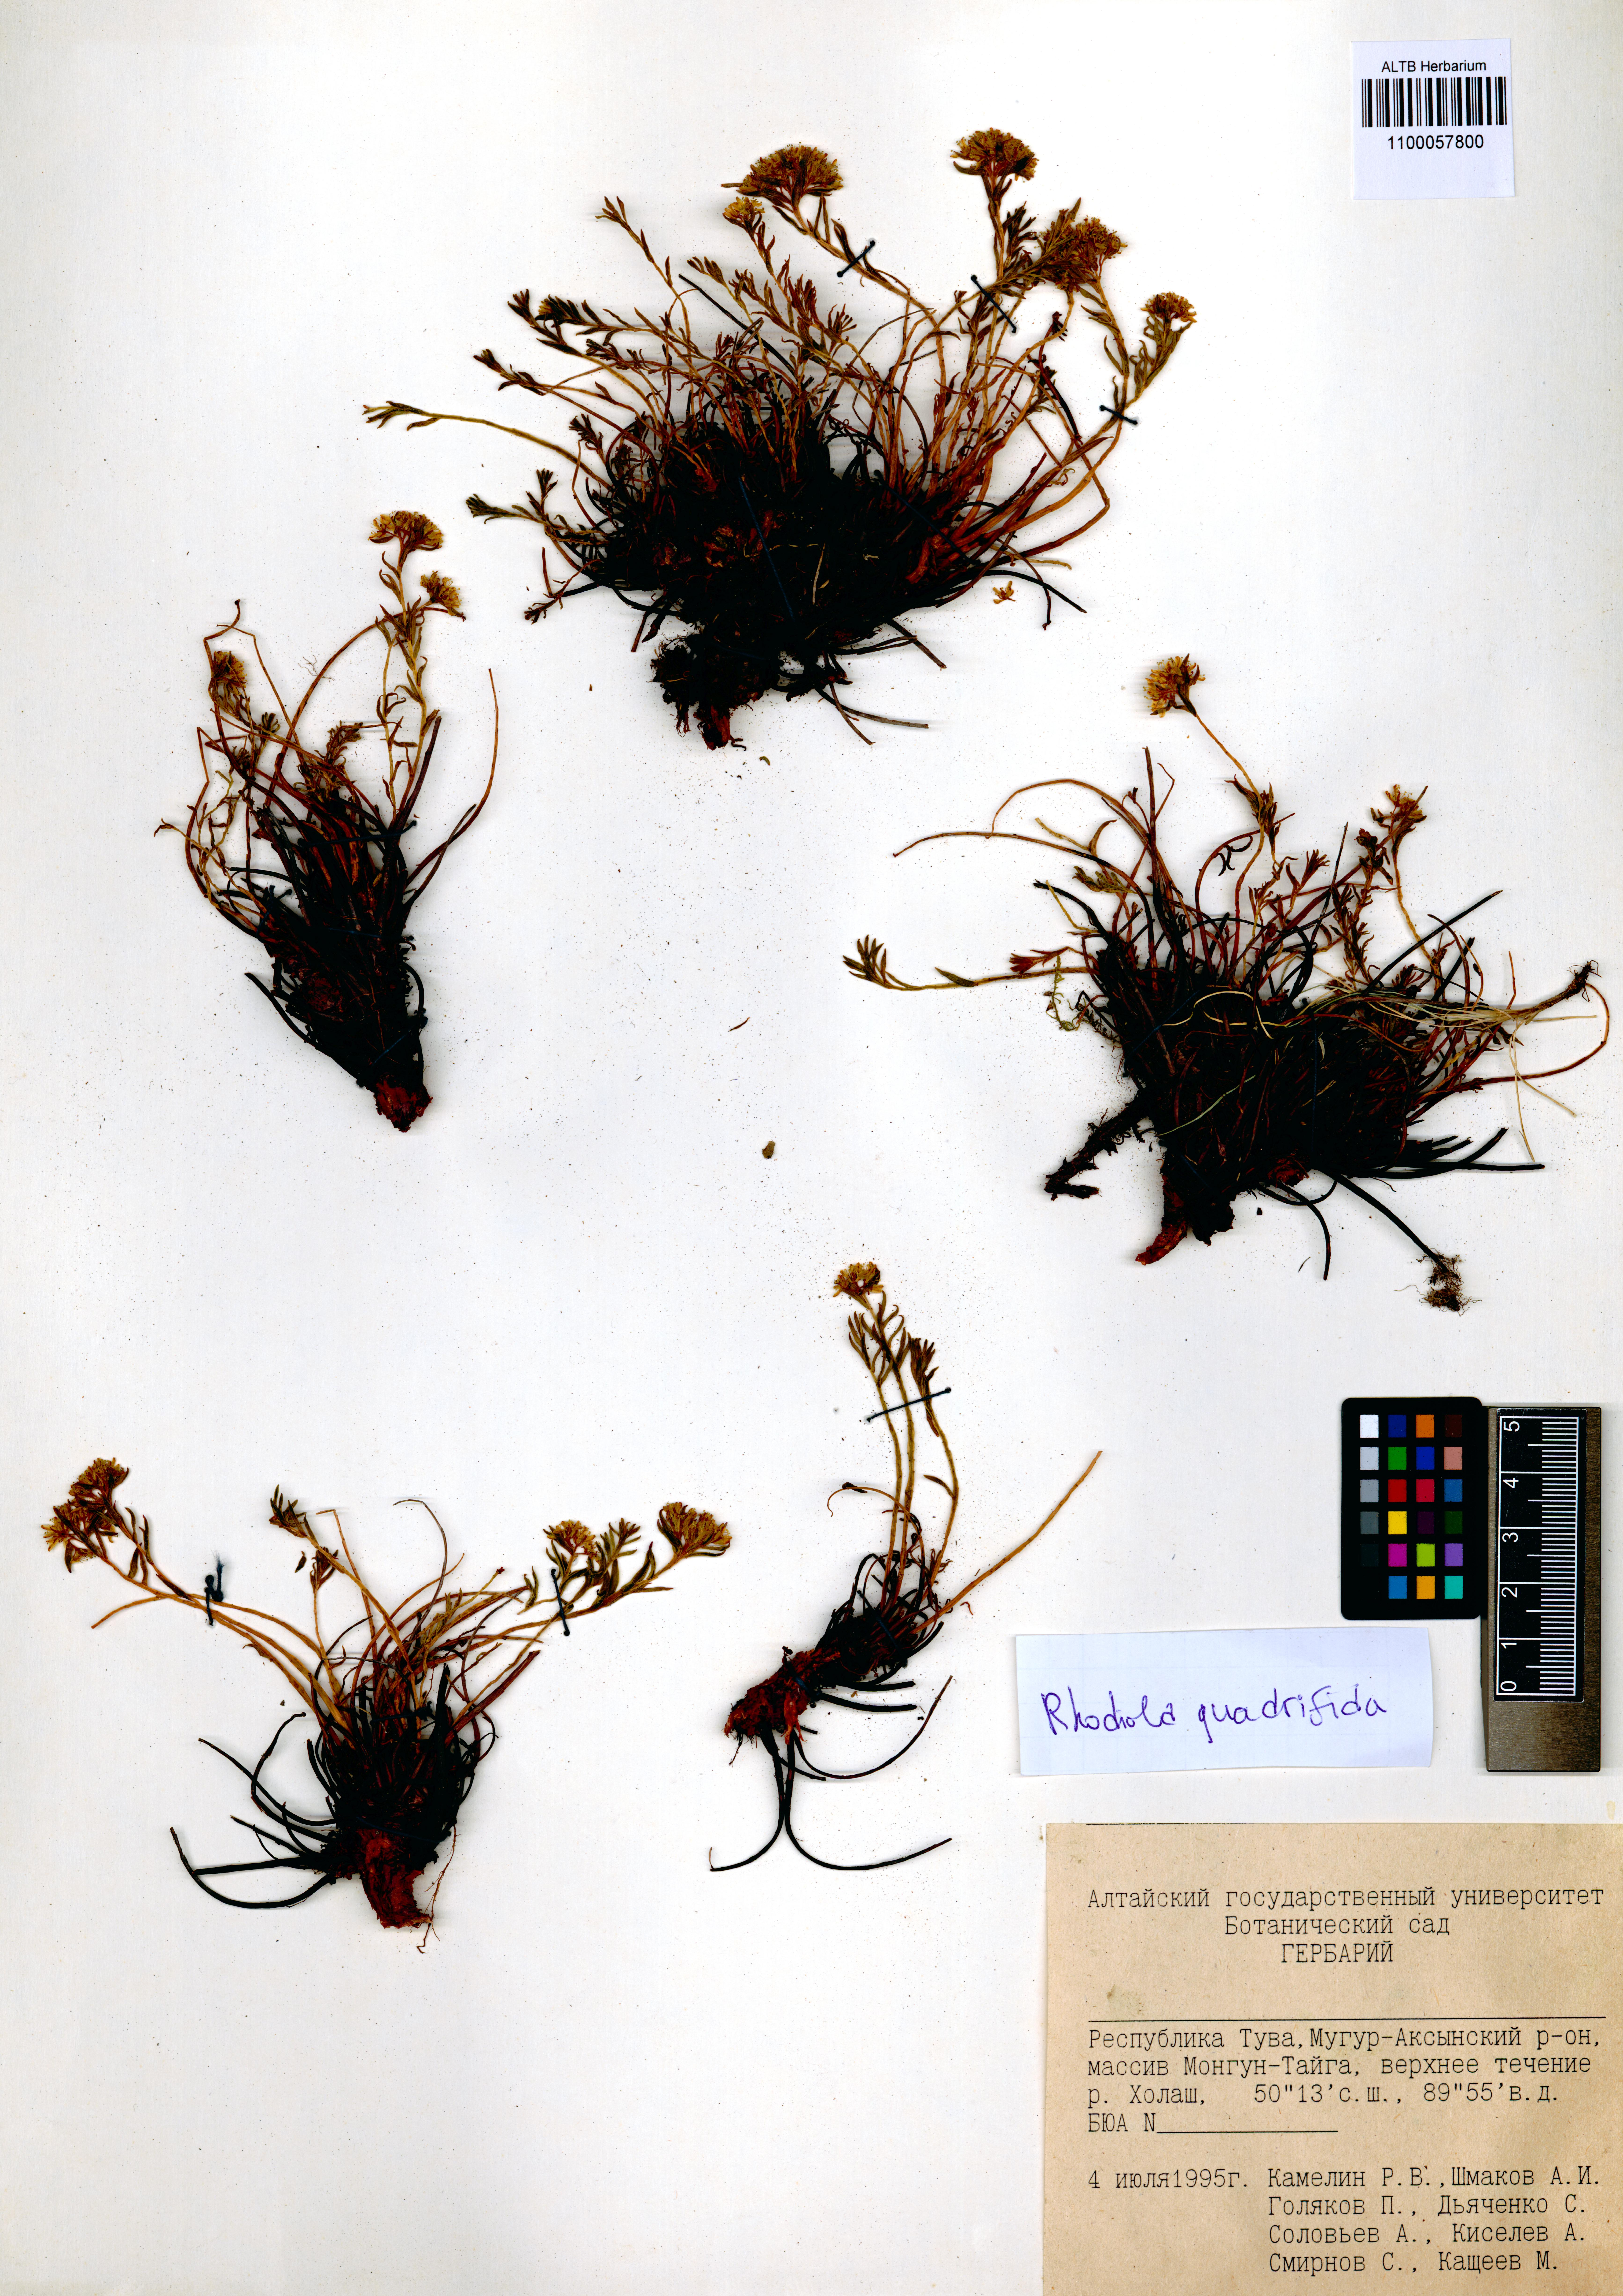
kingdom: Plantae
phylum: Tracheophyta
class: Magnoliopsida
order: Saxifragales
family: Crassulaceae
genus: Rhodiola
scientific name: Rhodiola quadrifida
